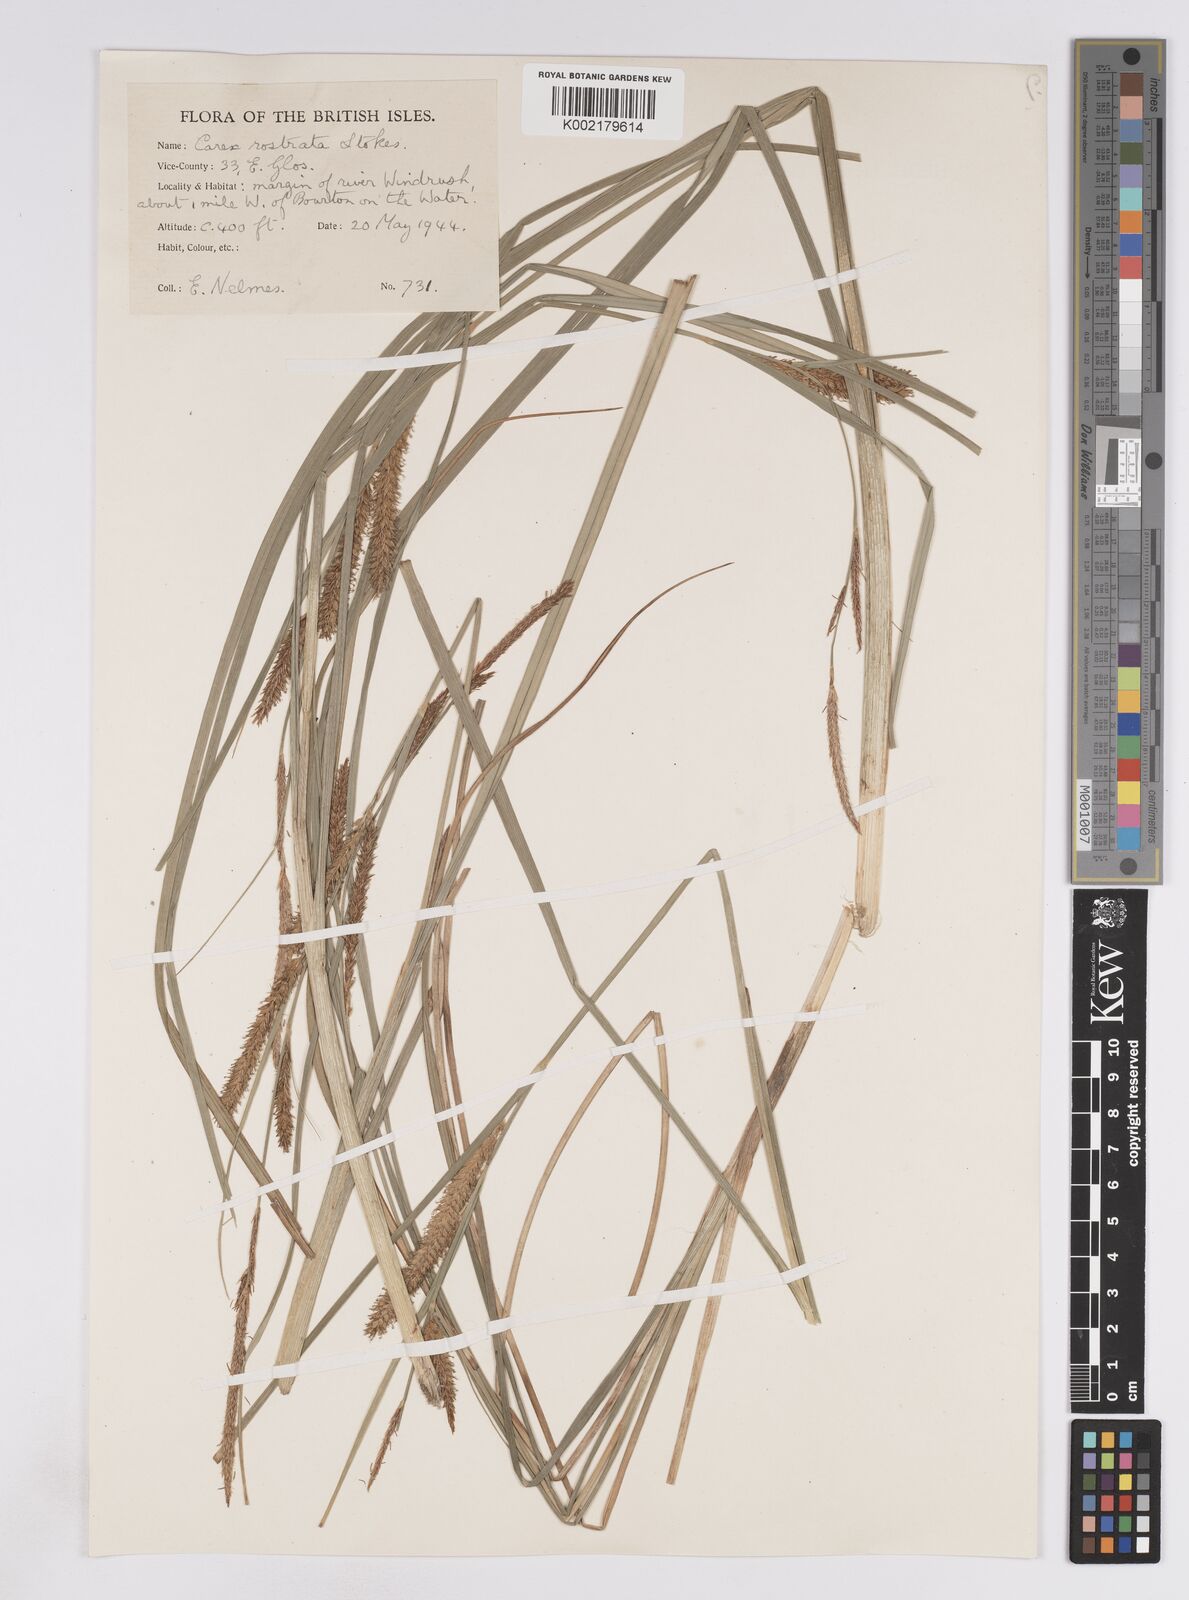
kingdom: Plantae
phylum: Tracheophyta
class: Liliopsida
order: Poales
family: Cyperaceae
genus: Carex
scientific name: Carex rostrata
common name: Bottle sedge
